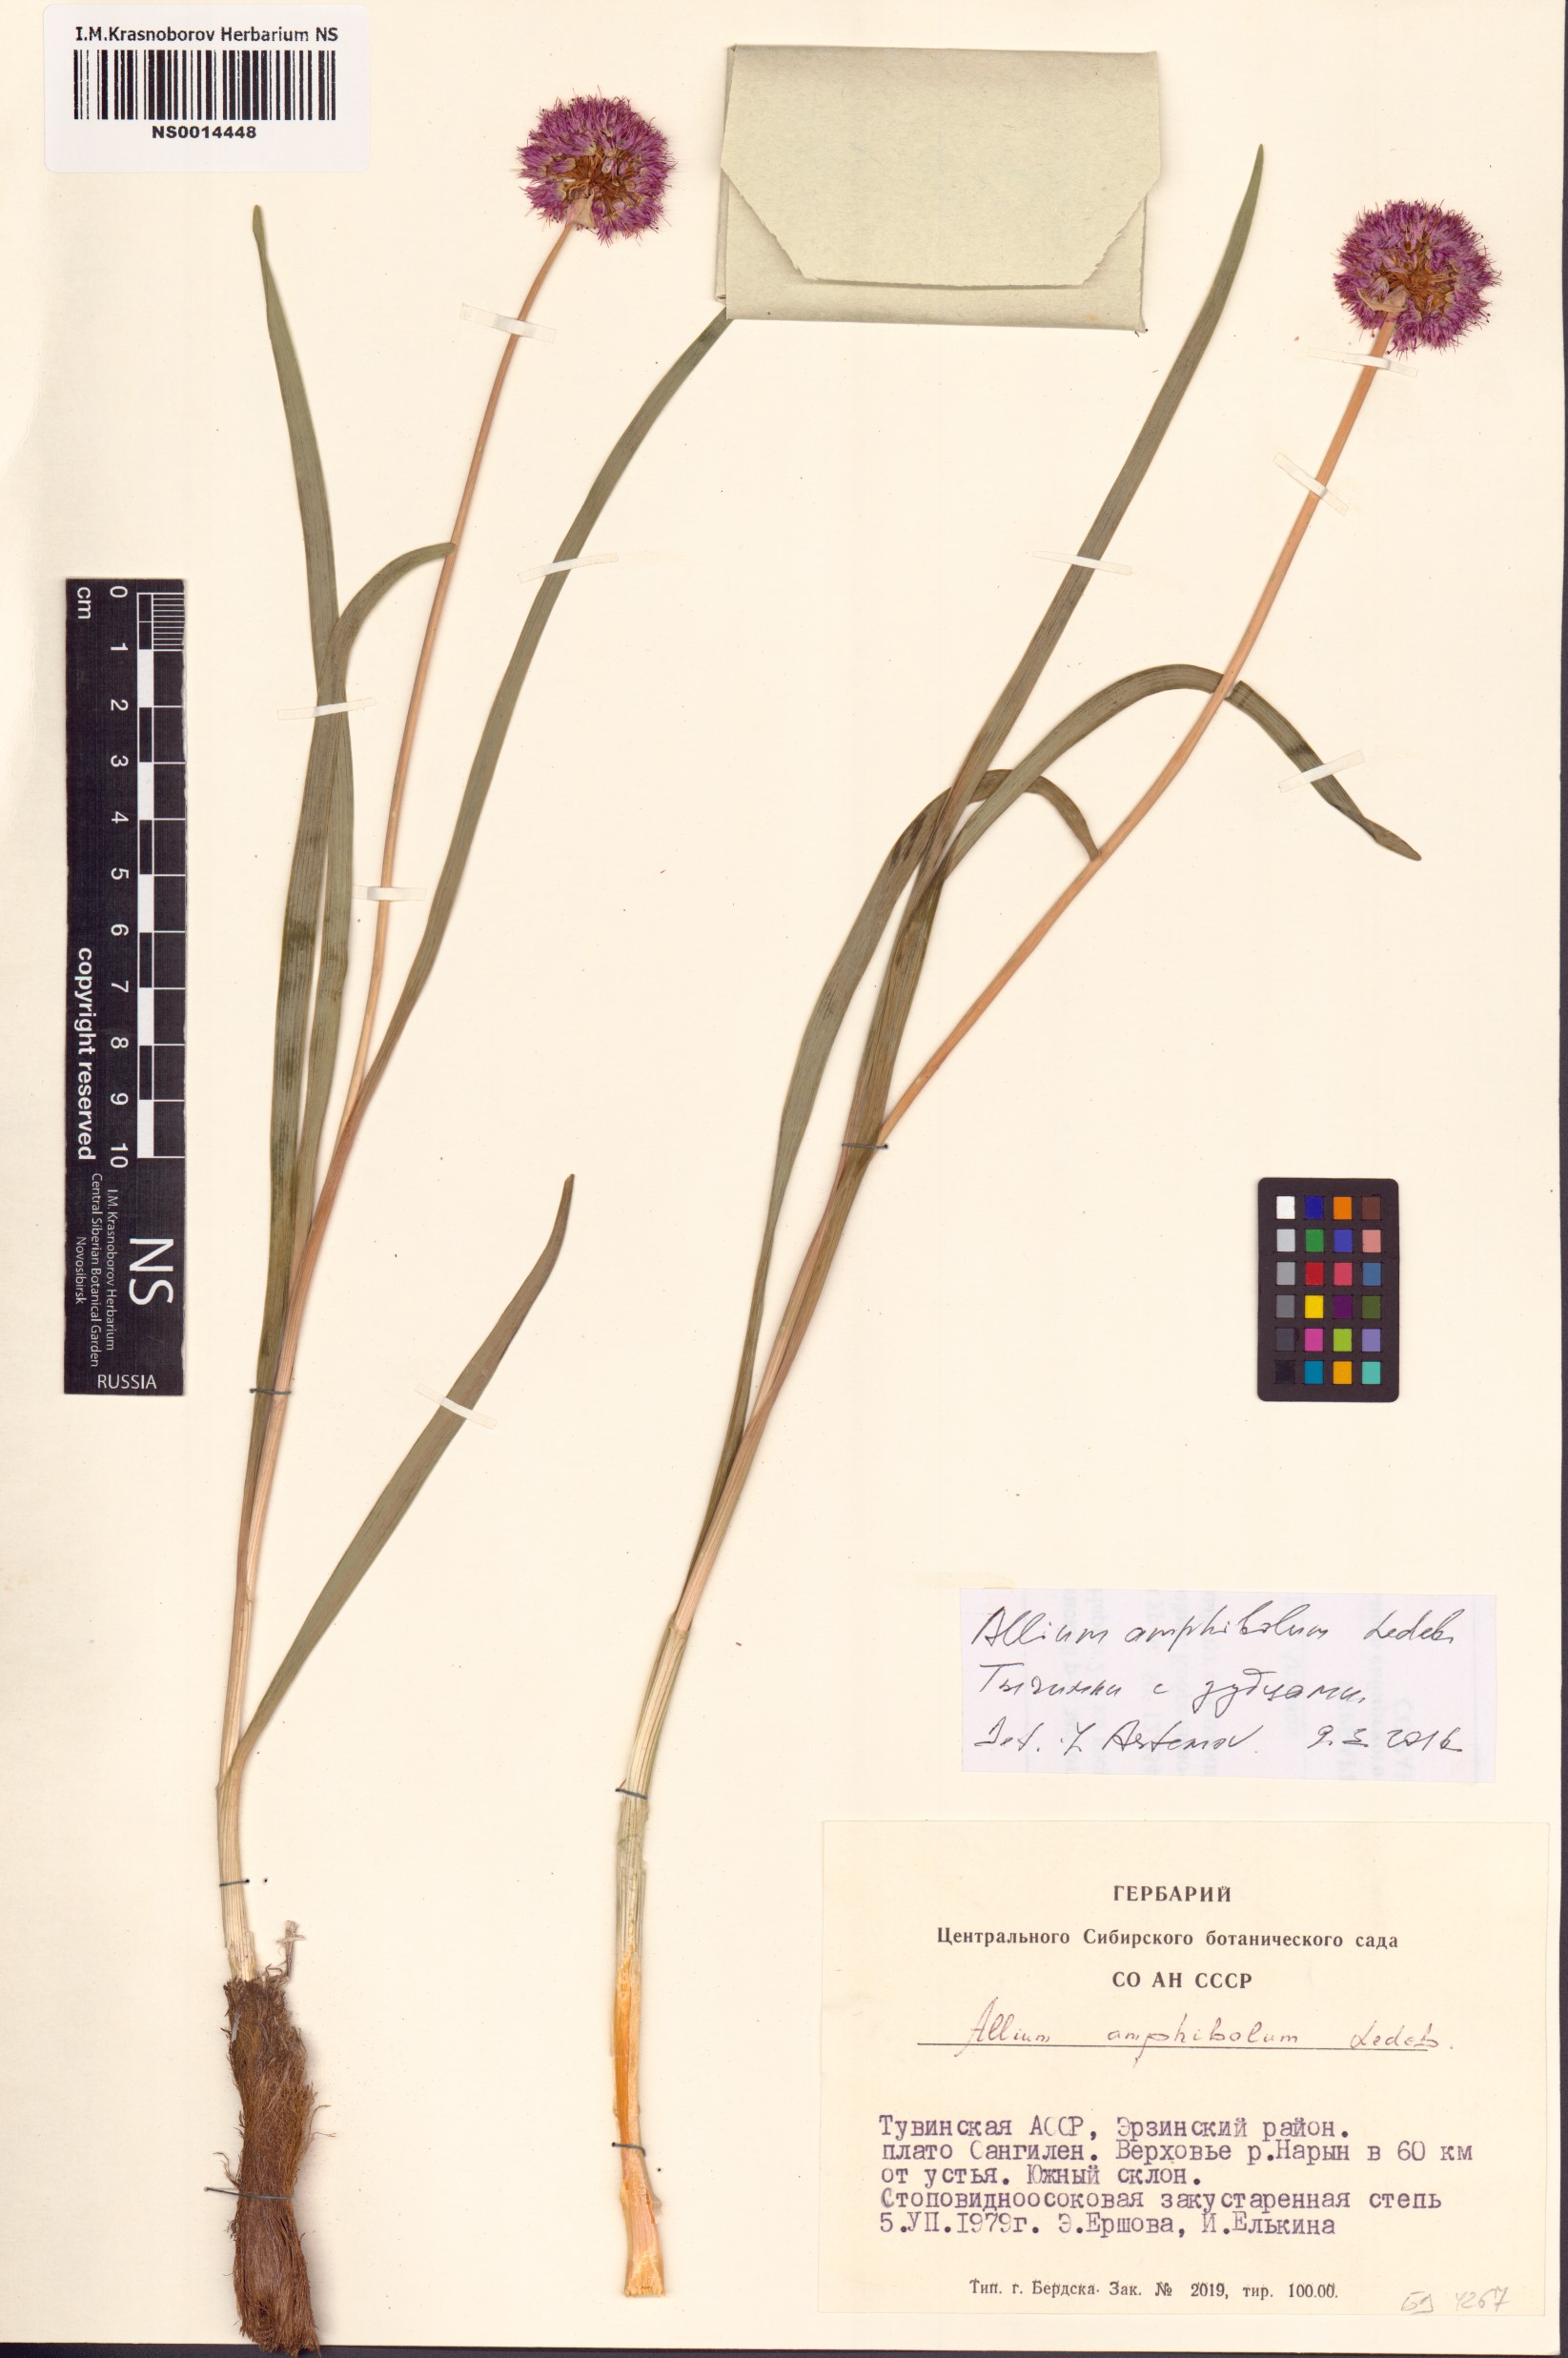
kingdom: Plantae
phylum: Tracheophyta
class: Liliopsida
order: Asparagales
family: Amaryllidaceae
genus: Allium
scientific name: Allium amphibolum
